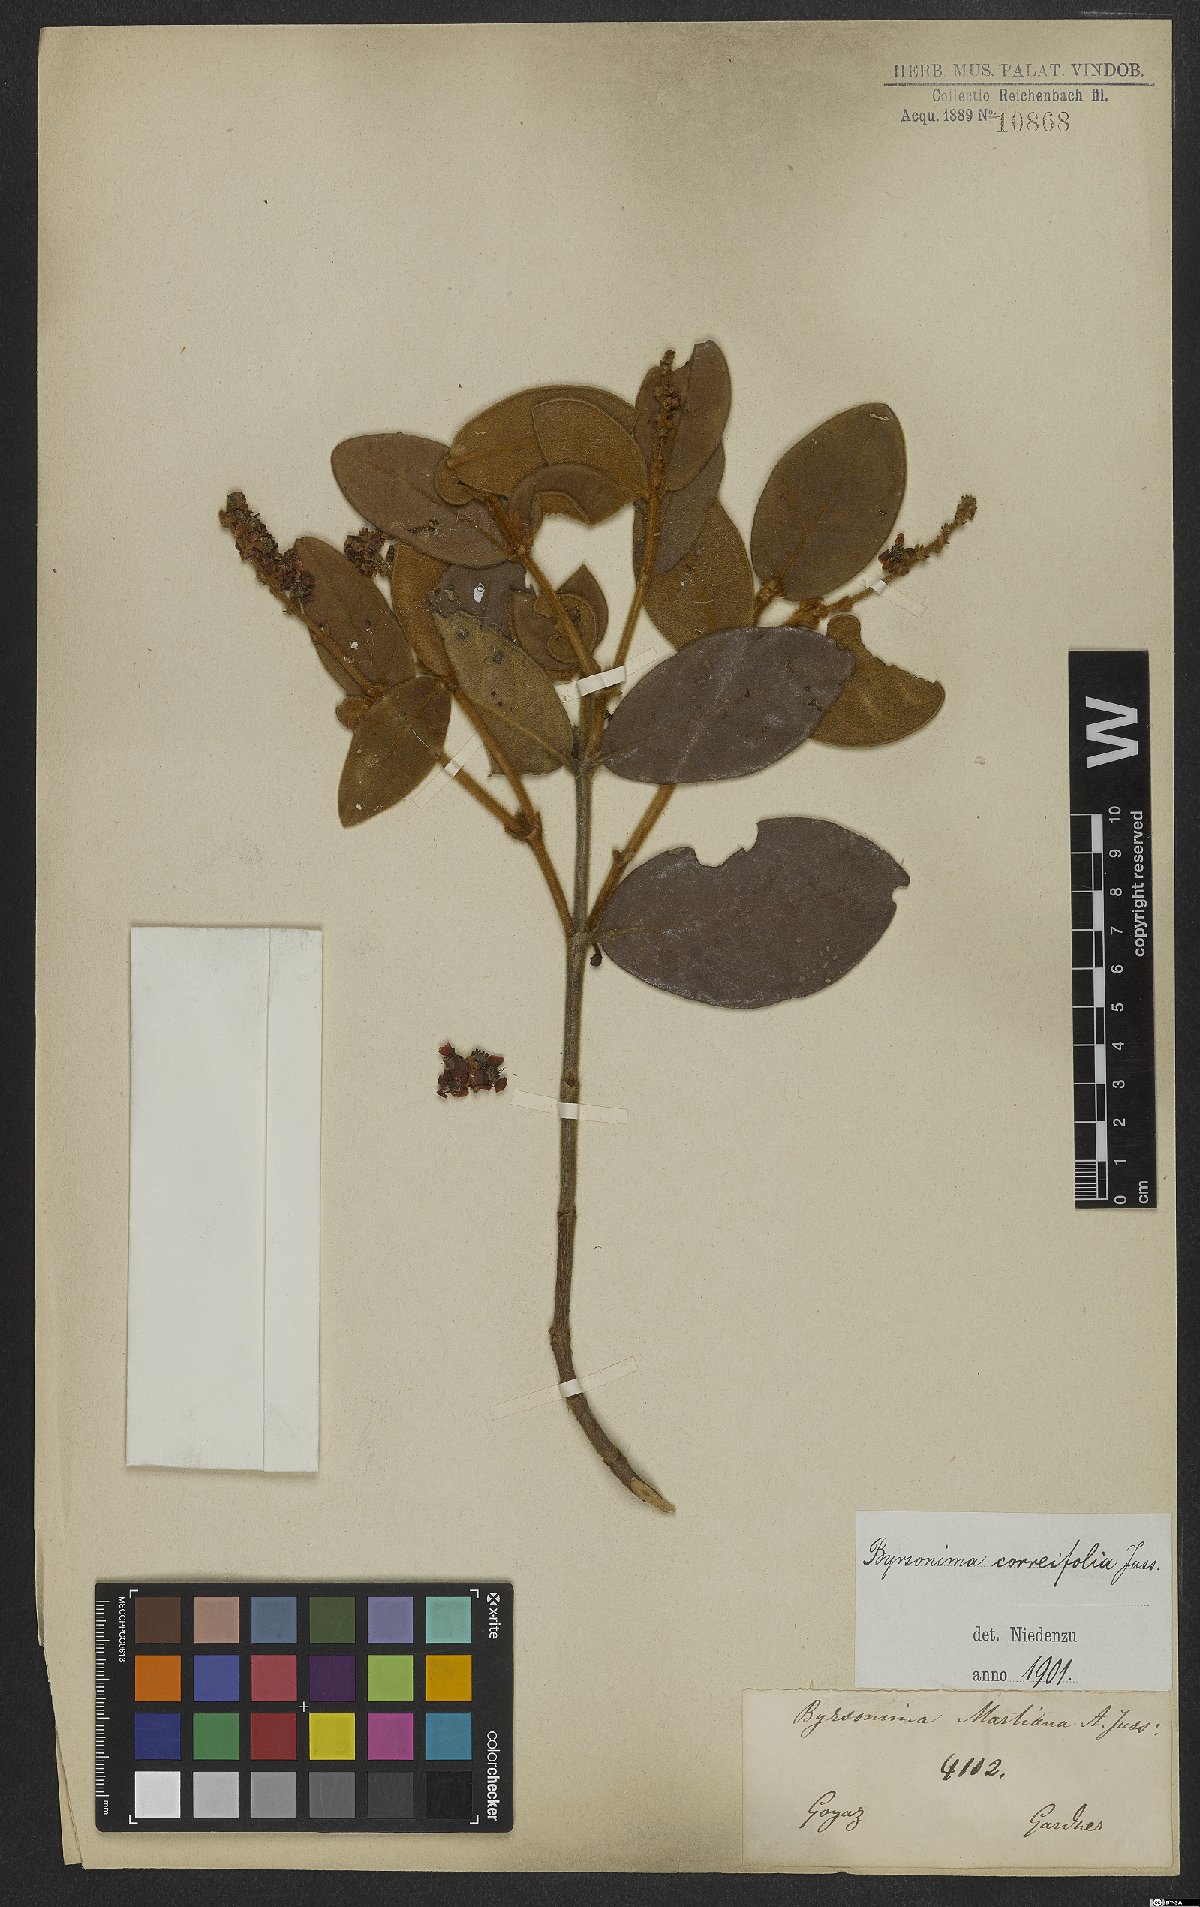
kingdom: Plantae
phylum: Tracheophyta
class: Magnoliopsida
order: Malpighiales
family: Malpighiaceae
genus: Byrsonima
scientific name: Byrsonima correifolia
